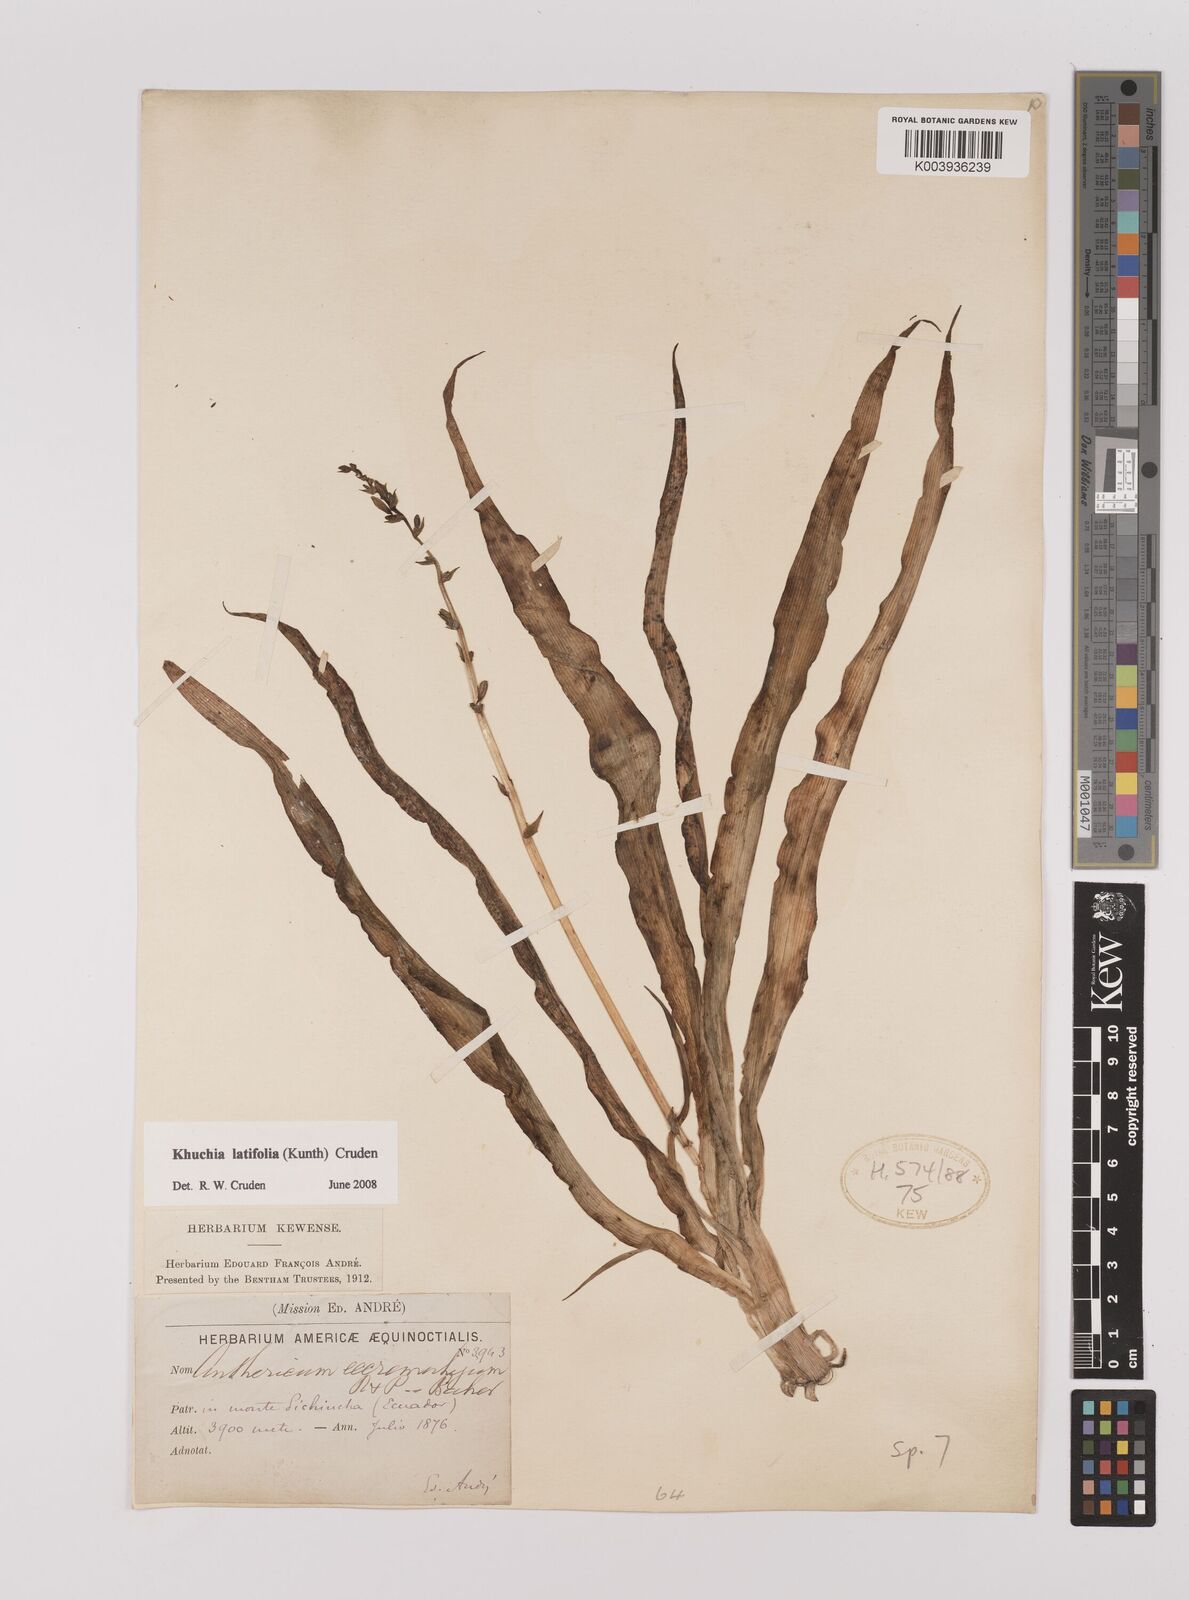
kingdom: Plantae
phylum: Tracheophyta
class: Liliopsida
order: Asparagales
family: Asparagaceae
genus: Echeandia
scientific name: Echeandia
